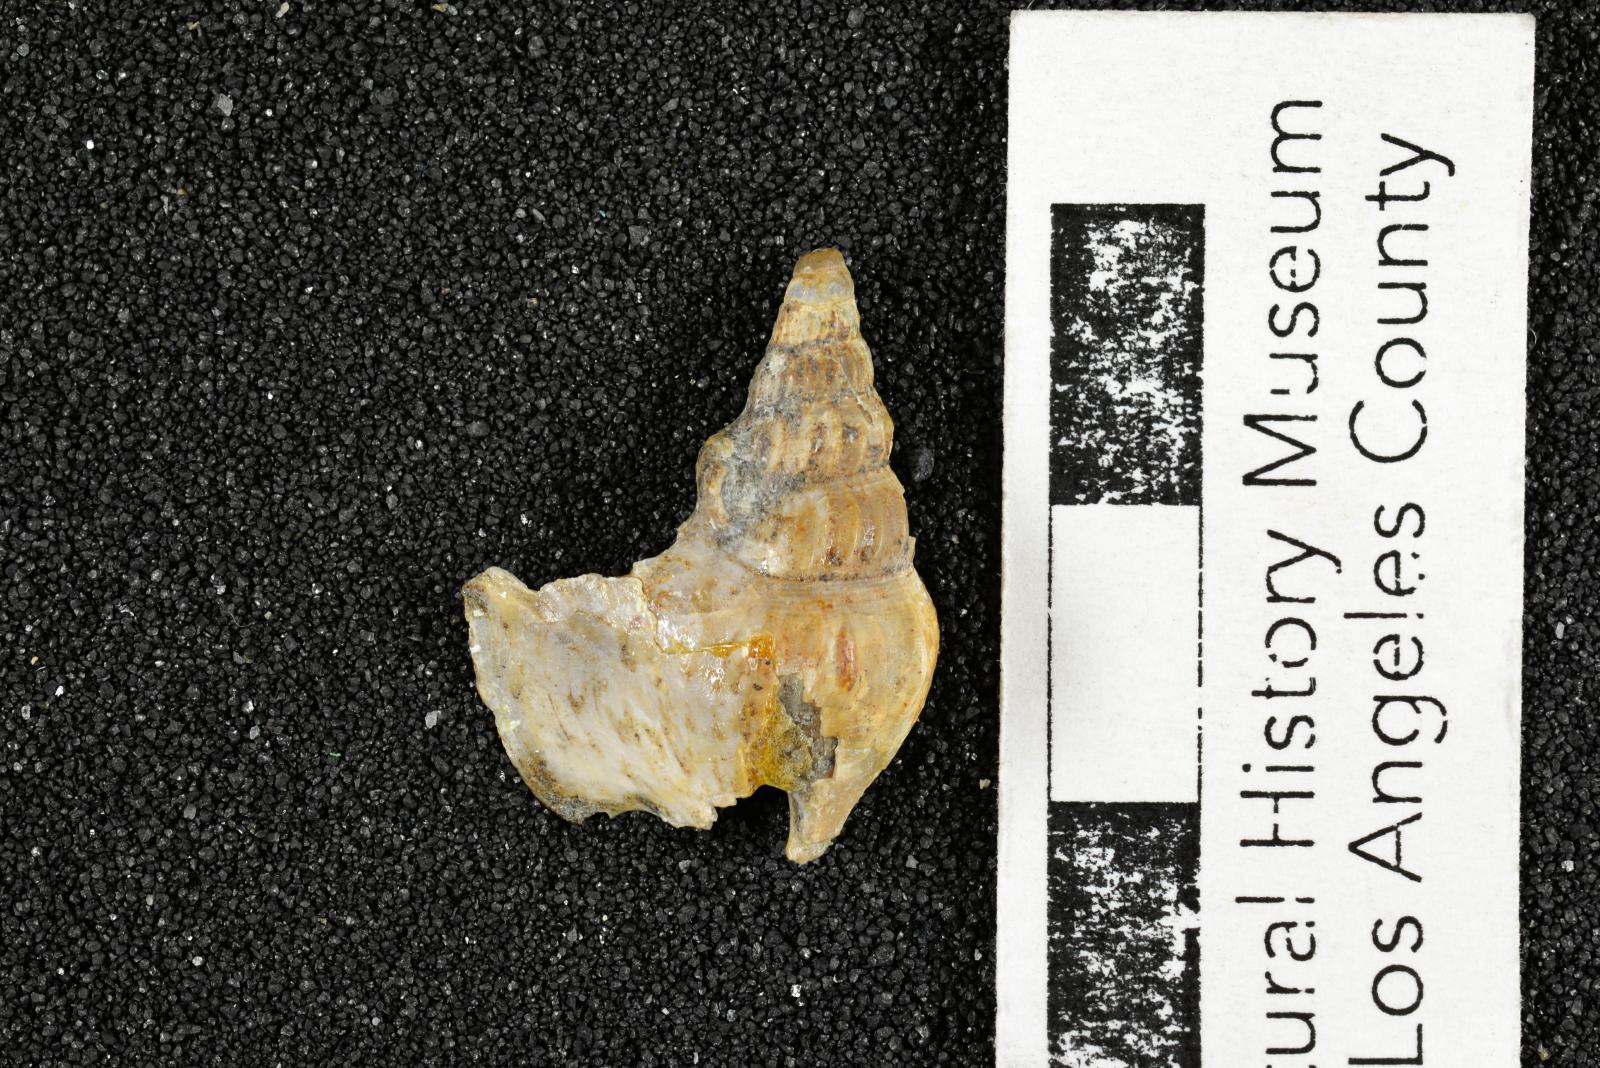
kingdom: Animalia
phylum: Mollusca
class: Gastropoda
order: Littorinimorpha
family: Aporrhaidae
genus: Latiala
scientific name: Latiala heliaca
